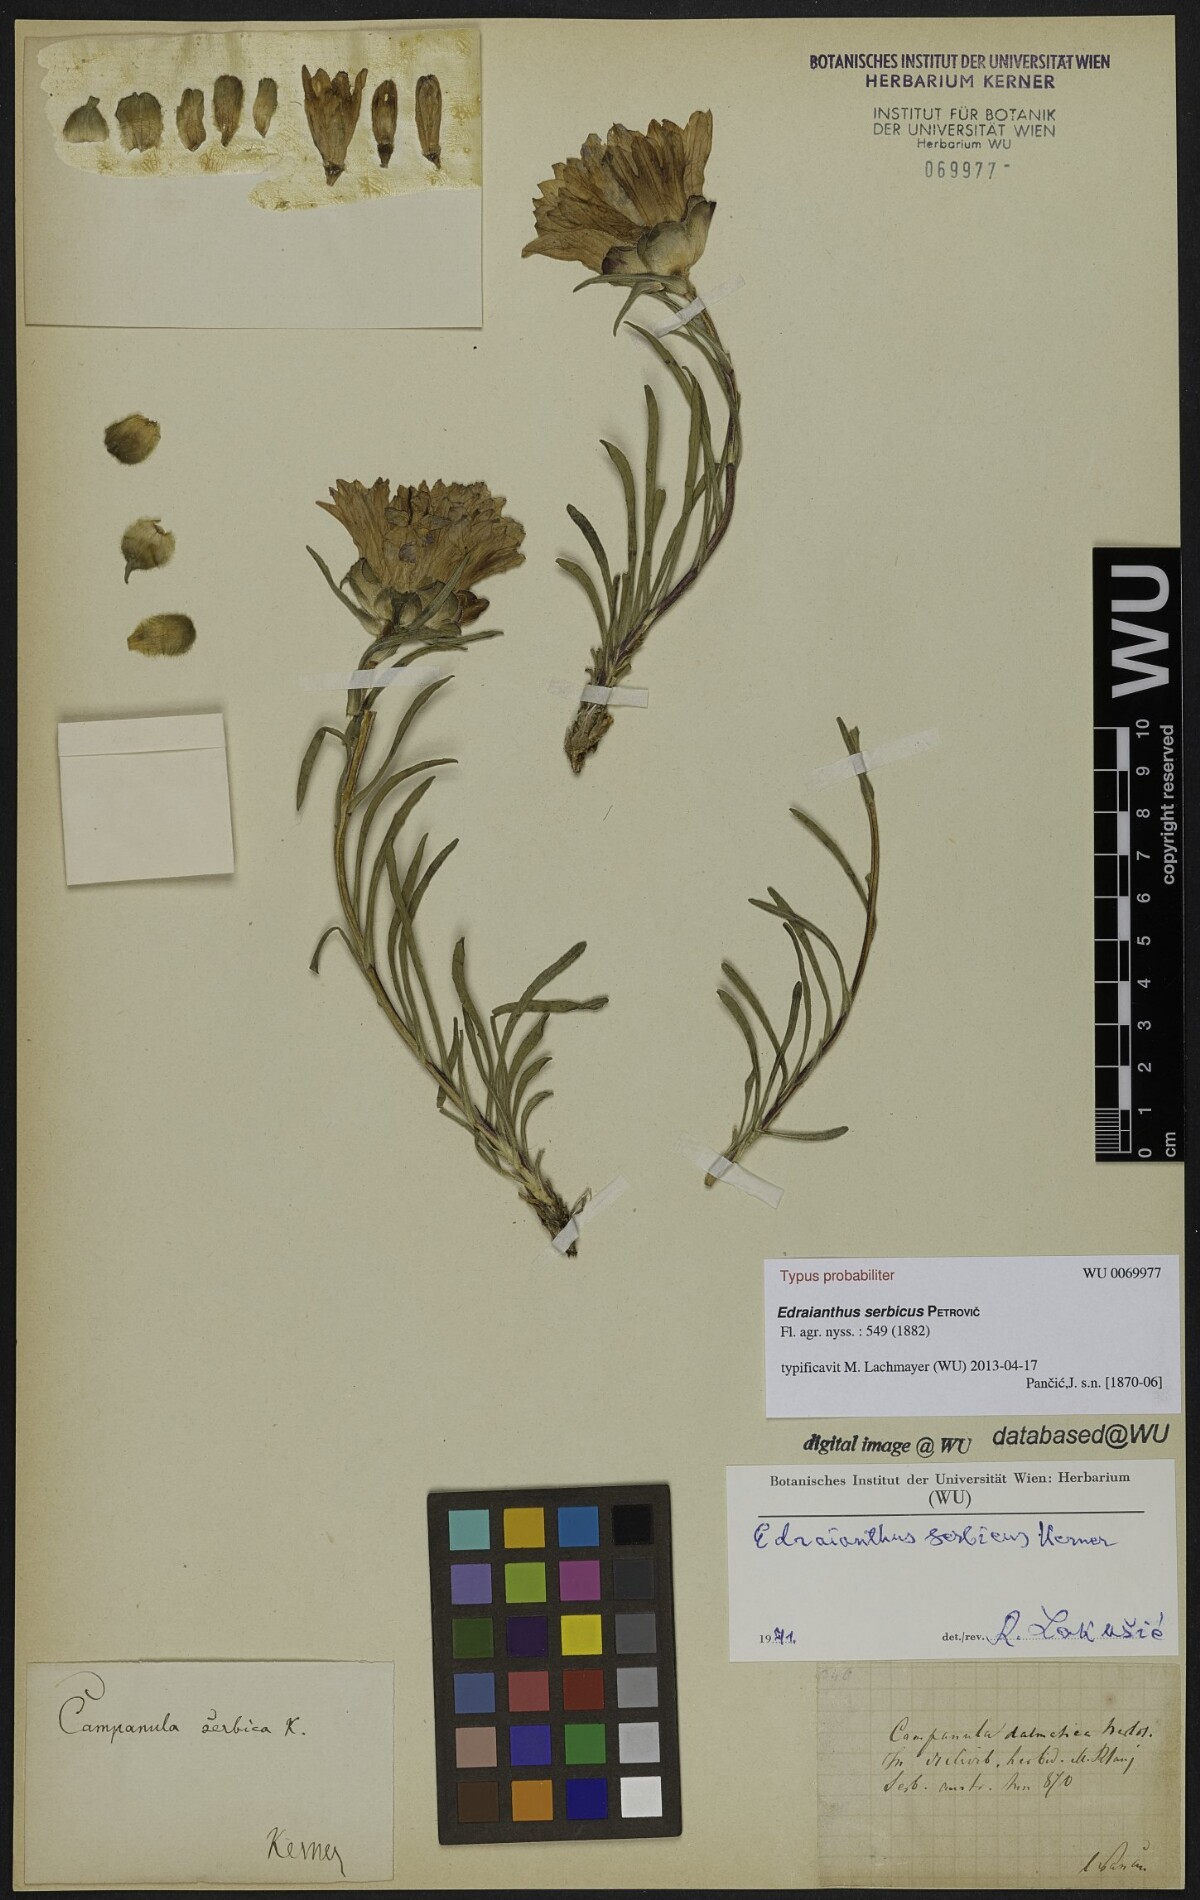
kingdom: Plantae
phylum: Tracheophyta
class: Magnoliopsida
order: Asterales
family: Campanulaceae
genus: Edraianthus
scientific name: Edraianthus serbicus
